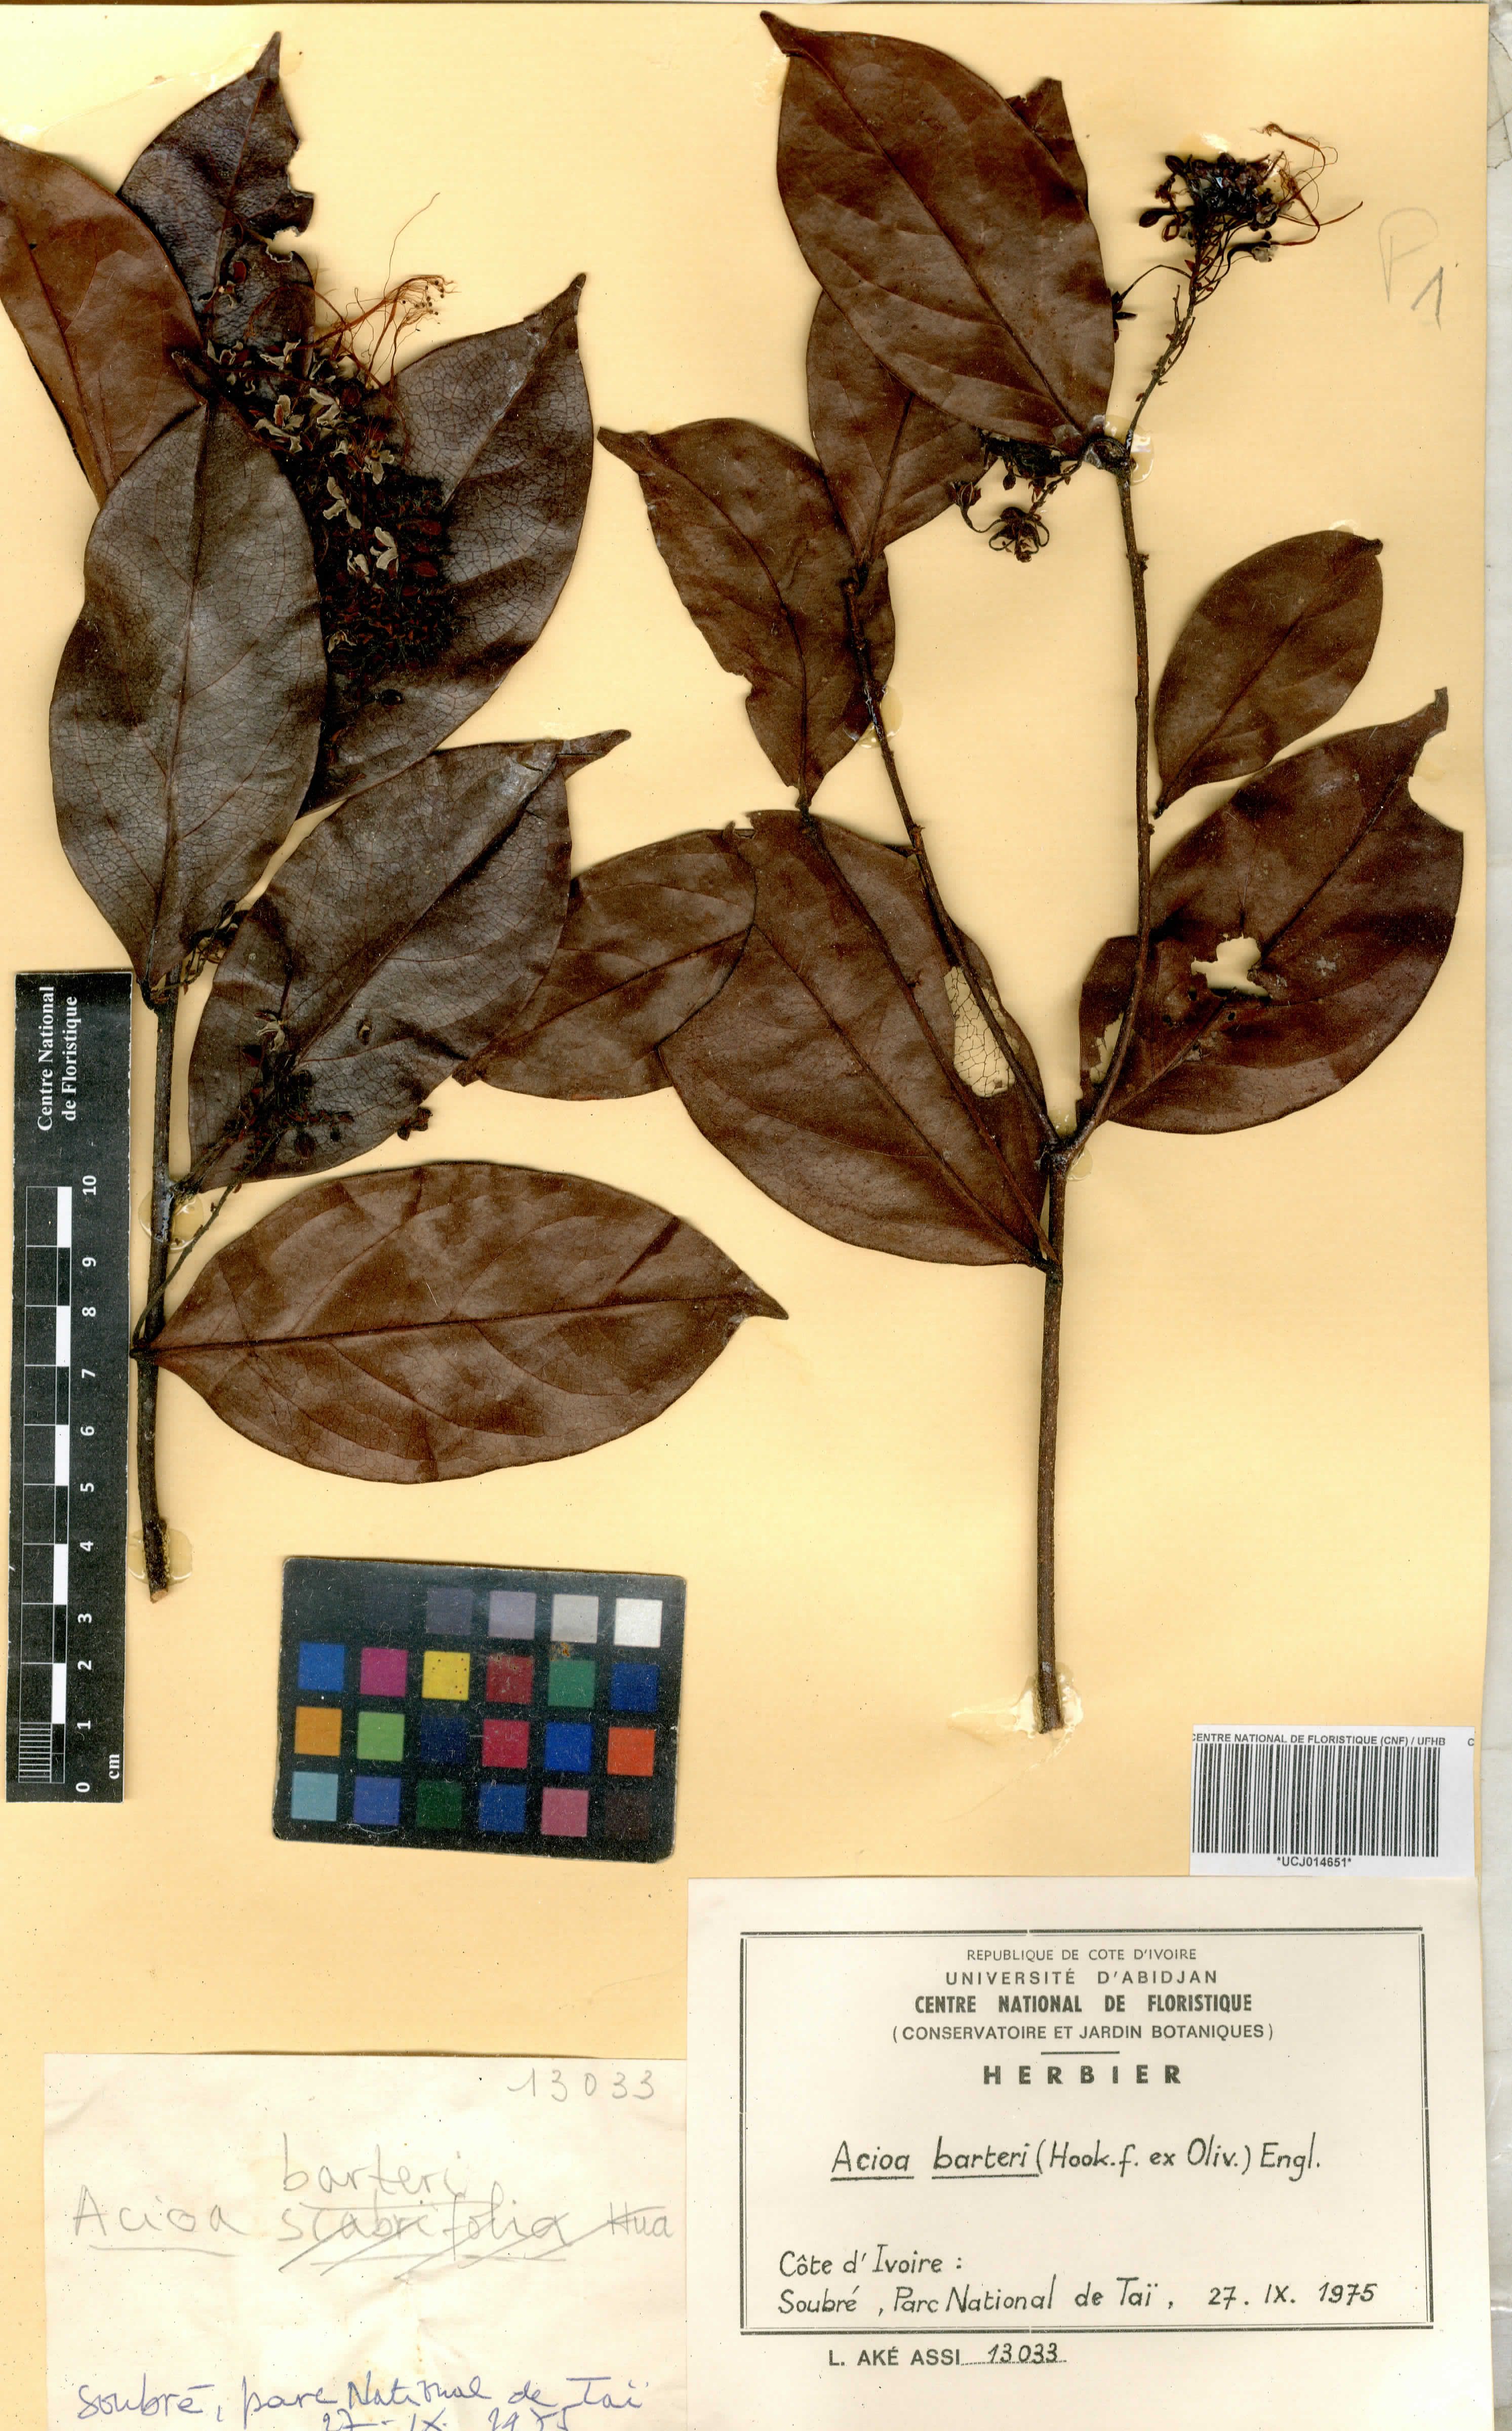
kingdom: Plantae
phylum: Tracheophyta
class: Magnoliopsida
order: Malpighiales
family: Chrysobalanaceae
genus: Dactyladenia
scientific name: Dactyladenia barteri
